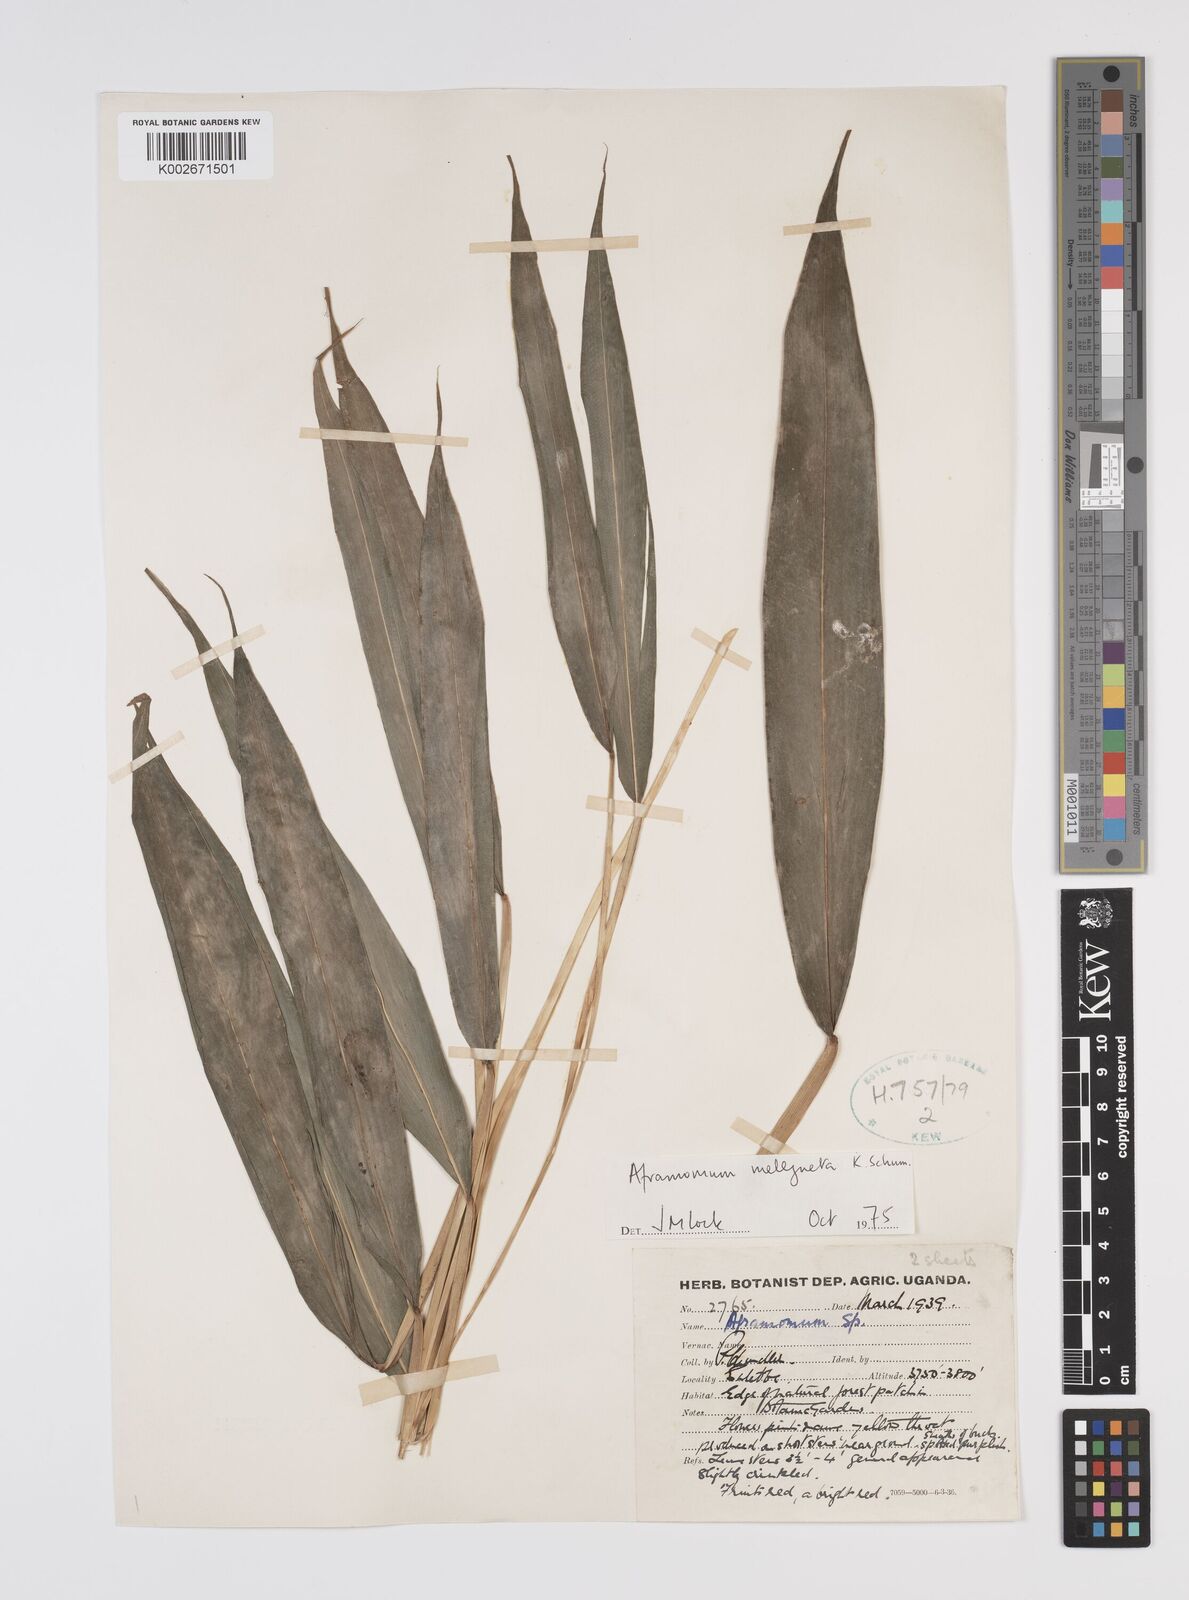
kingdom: Plantae
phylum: Tracheophyta
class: Liliopsida
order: Zingiberales
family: Zingiberaceae
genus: Aframomum
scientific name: Aframomum melegueta
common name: Grains of paradise
